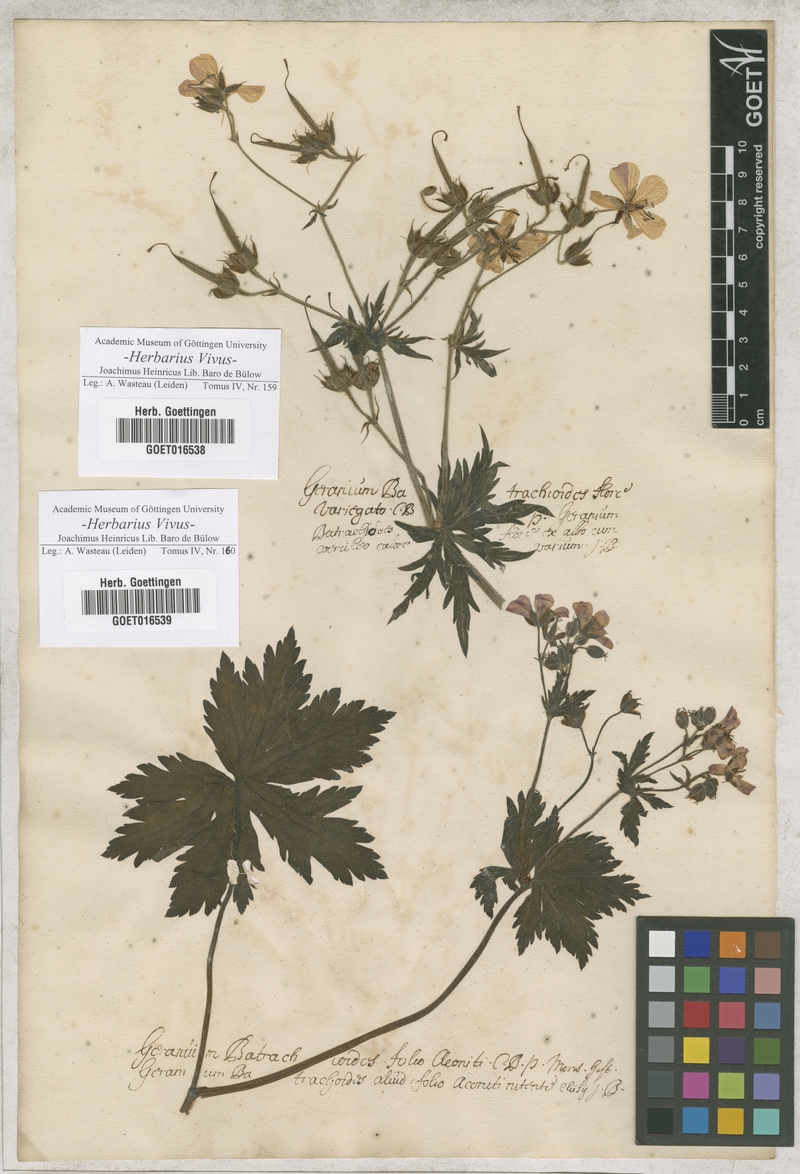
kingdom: Plantae
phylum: Tracheophyta
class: Magnoliopsida
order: Geraniales
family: Geraniaceae
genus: Geranium
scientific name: Geranium
